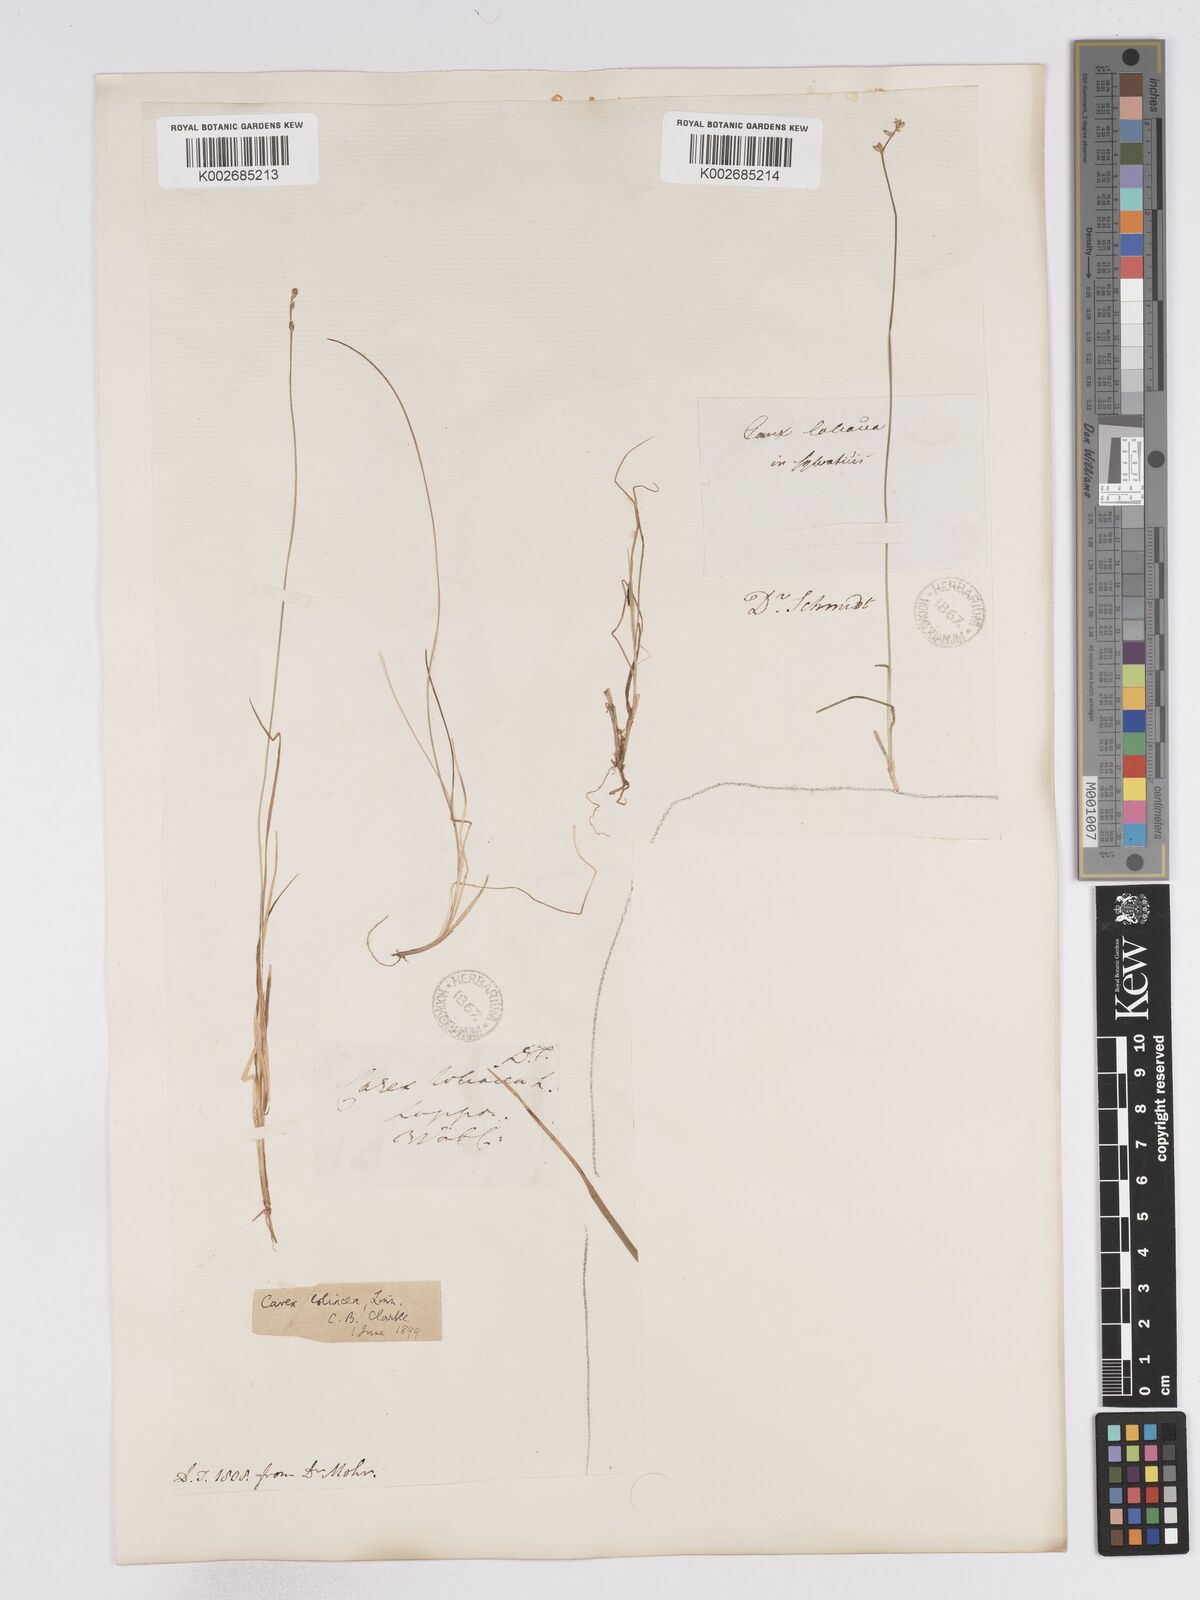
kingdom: Plantae
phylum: Tracheophyta
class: Liliopsida
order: Poales
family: Cyperaceae
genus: Carex
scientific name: Carex loliacea
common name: Ryegrass sedge
